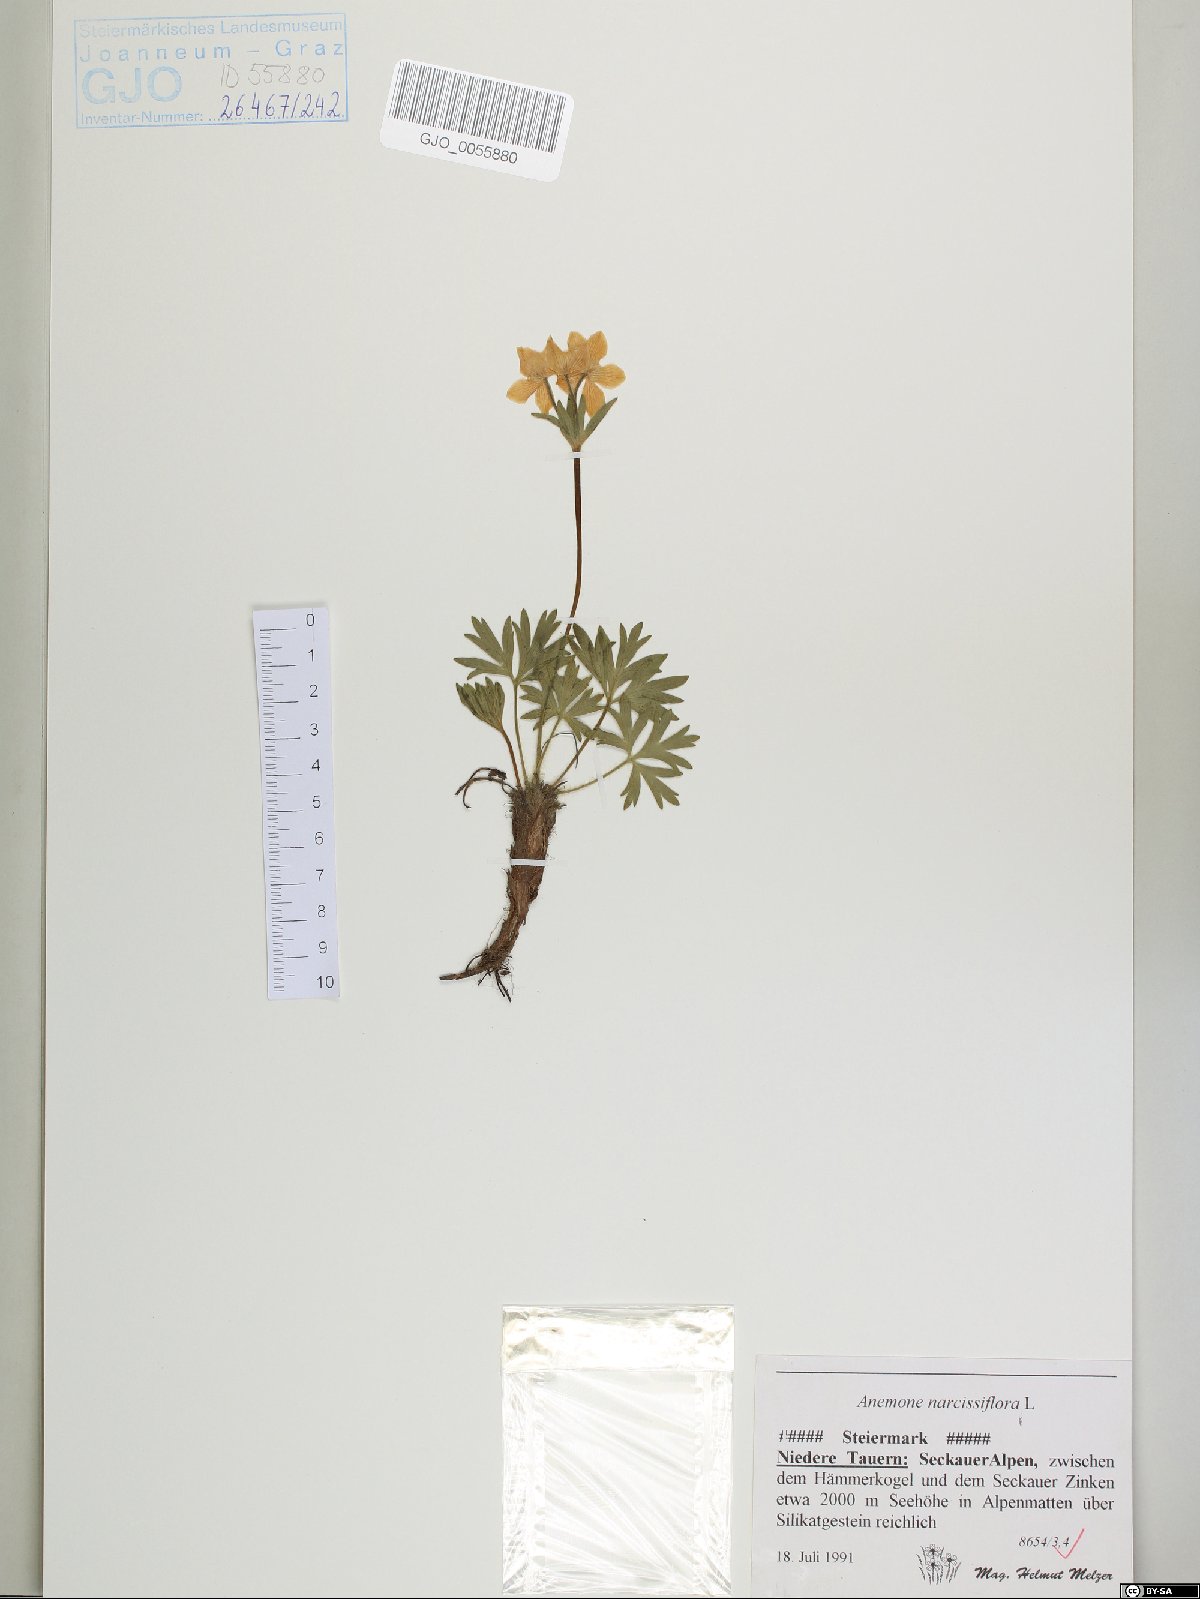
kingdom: Plantae
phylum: Tracheophyta
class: Magnoliopsida
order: Ranunculales
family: Ranunculaceae
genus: Anemonastrum
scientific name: Anemonastrum narcissiflorum
